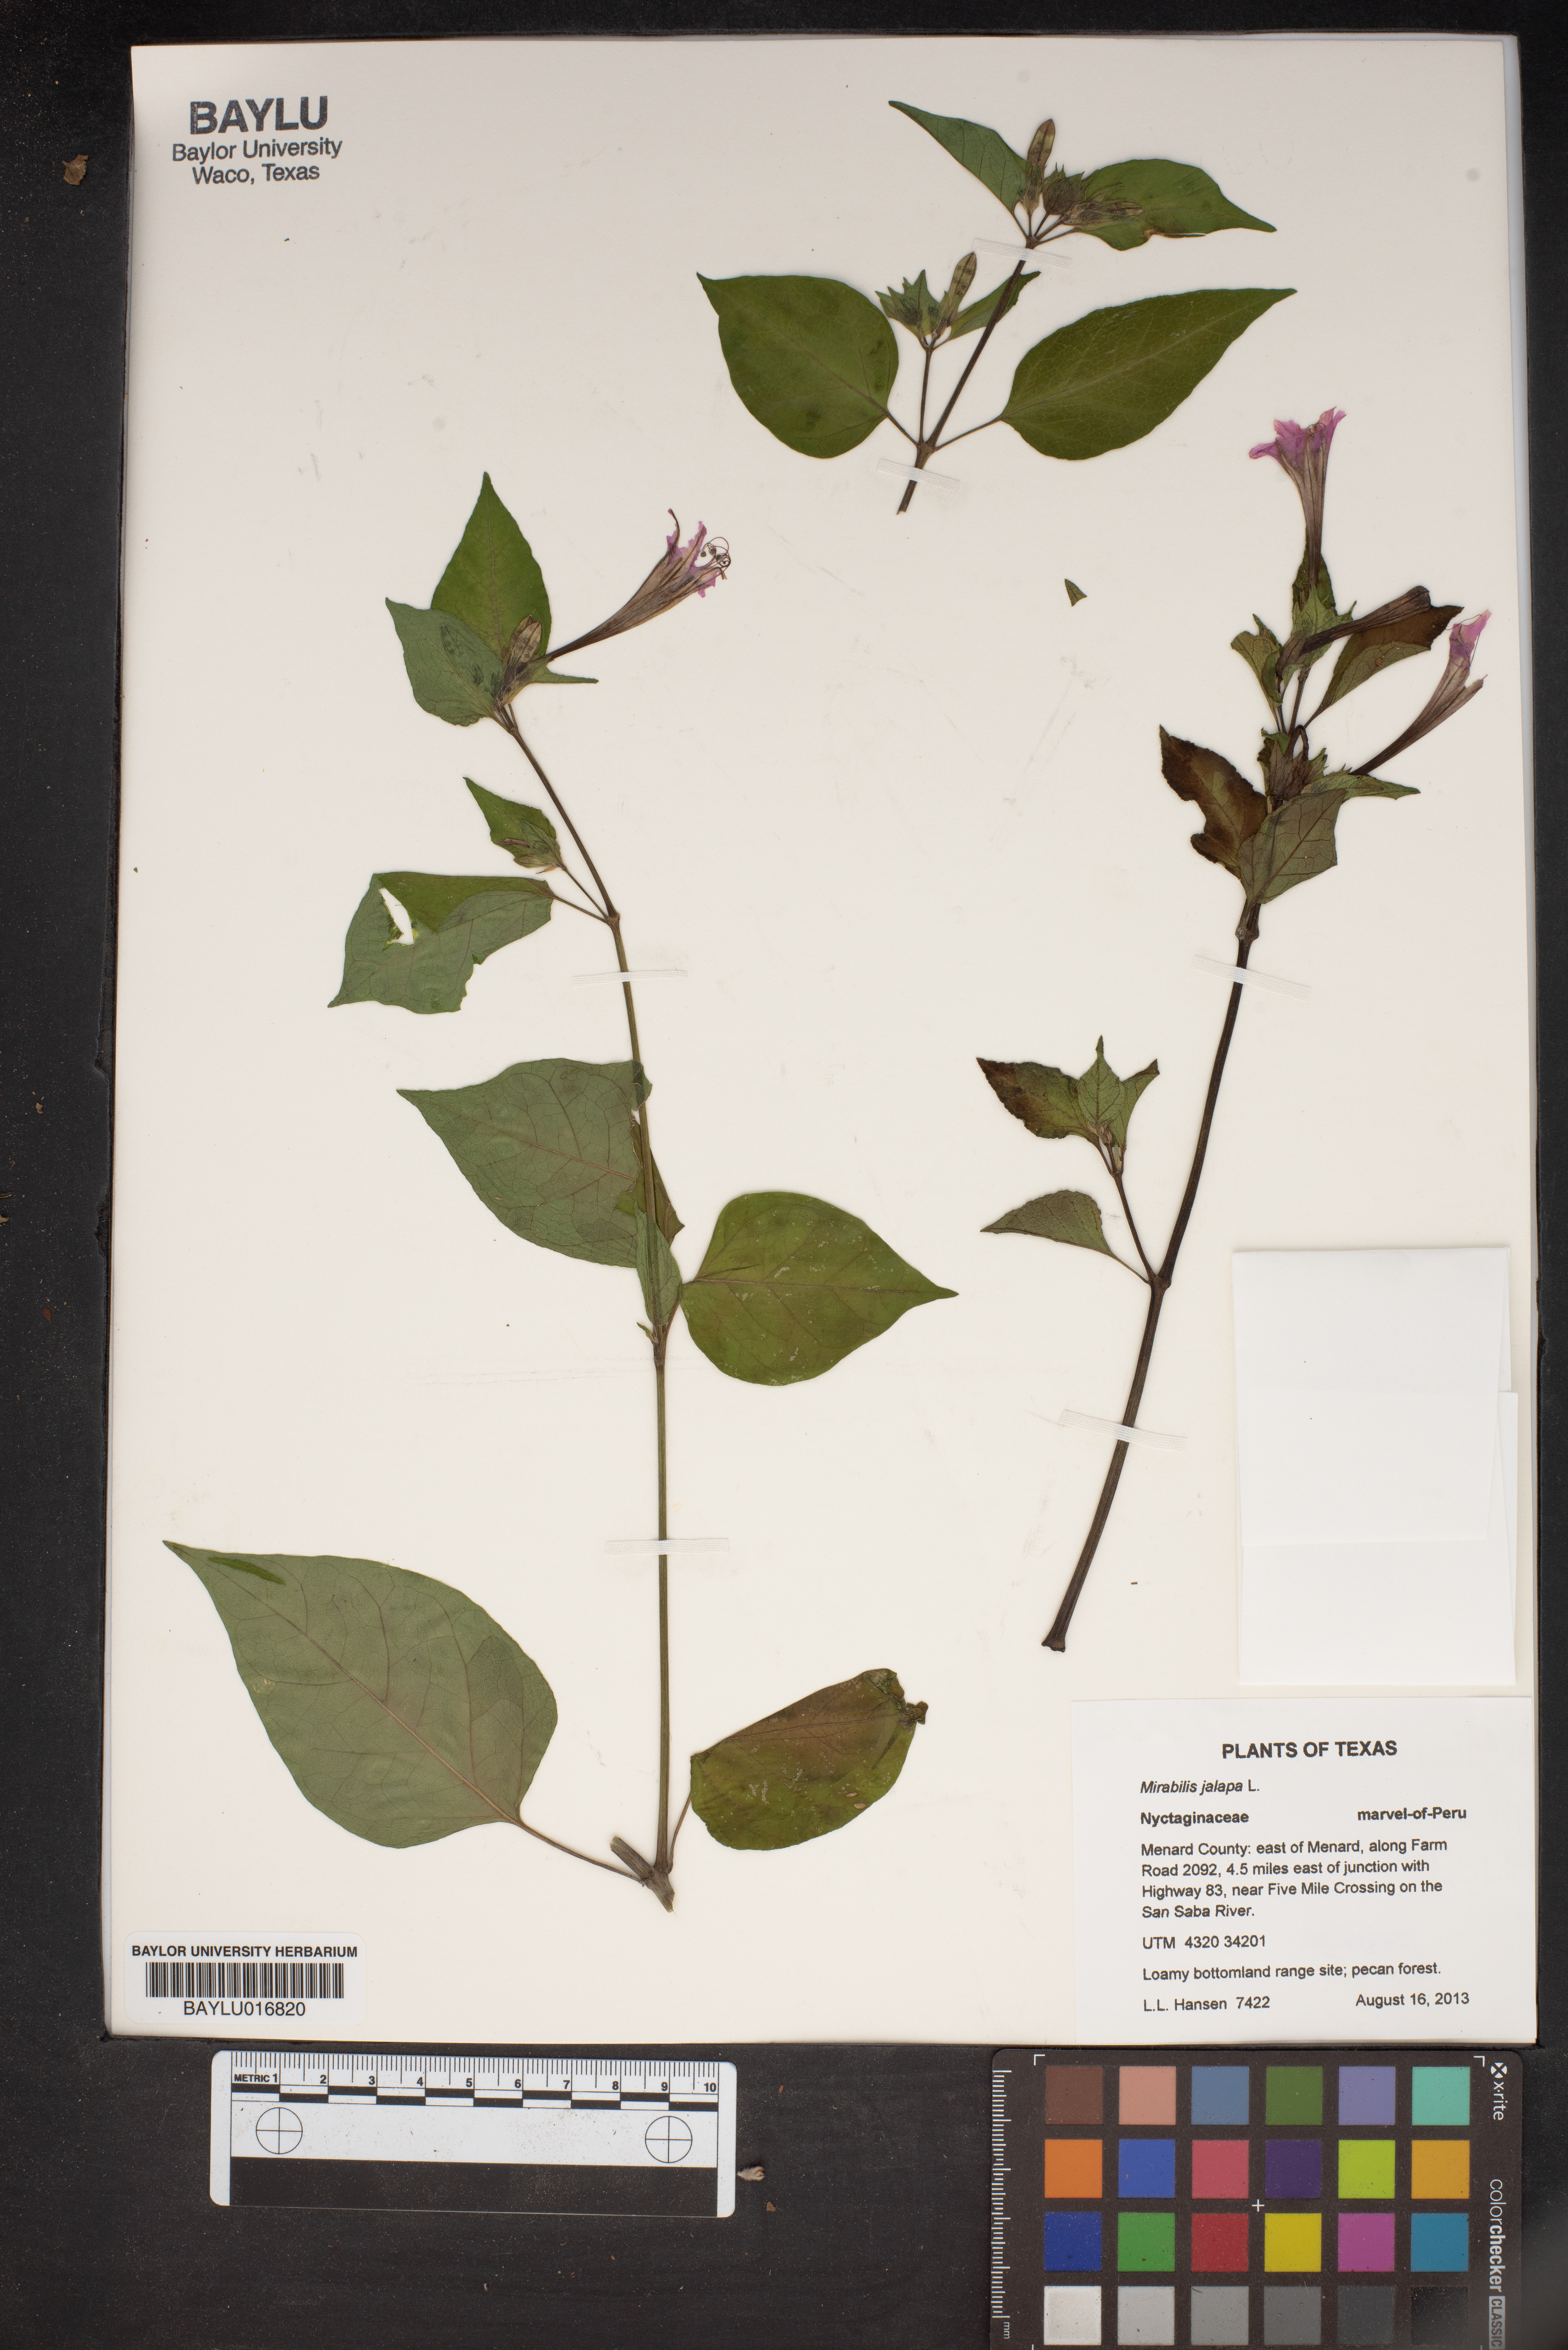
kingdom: Plantae
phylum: Tracheophyta
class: Magnoliopsida
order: Caryophyllales
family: Nyctaginaceae
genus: Mirabilis
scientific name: Mirabilis jalapa
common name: Marvel-of-peru
